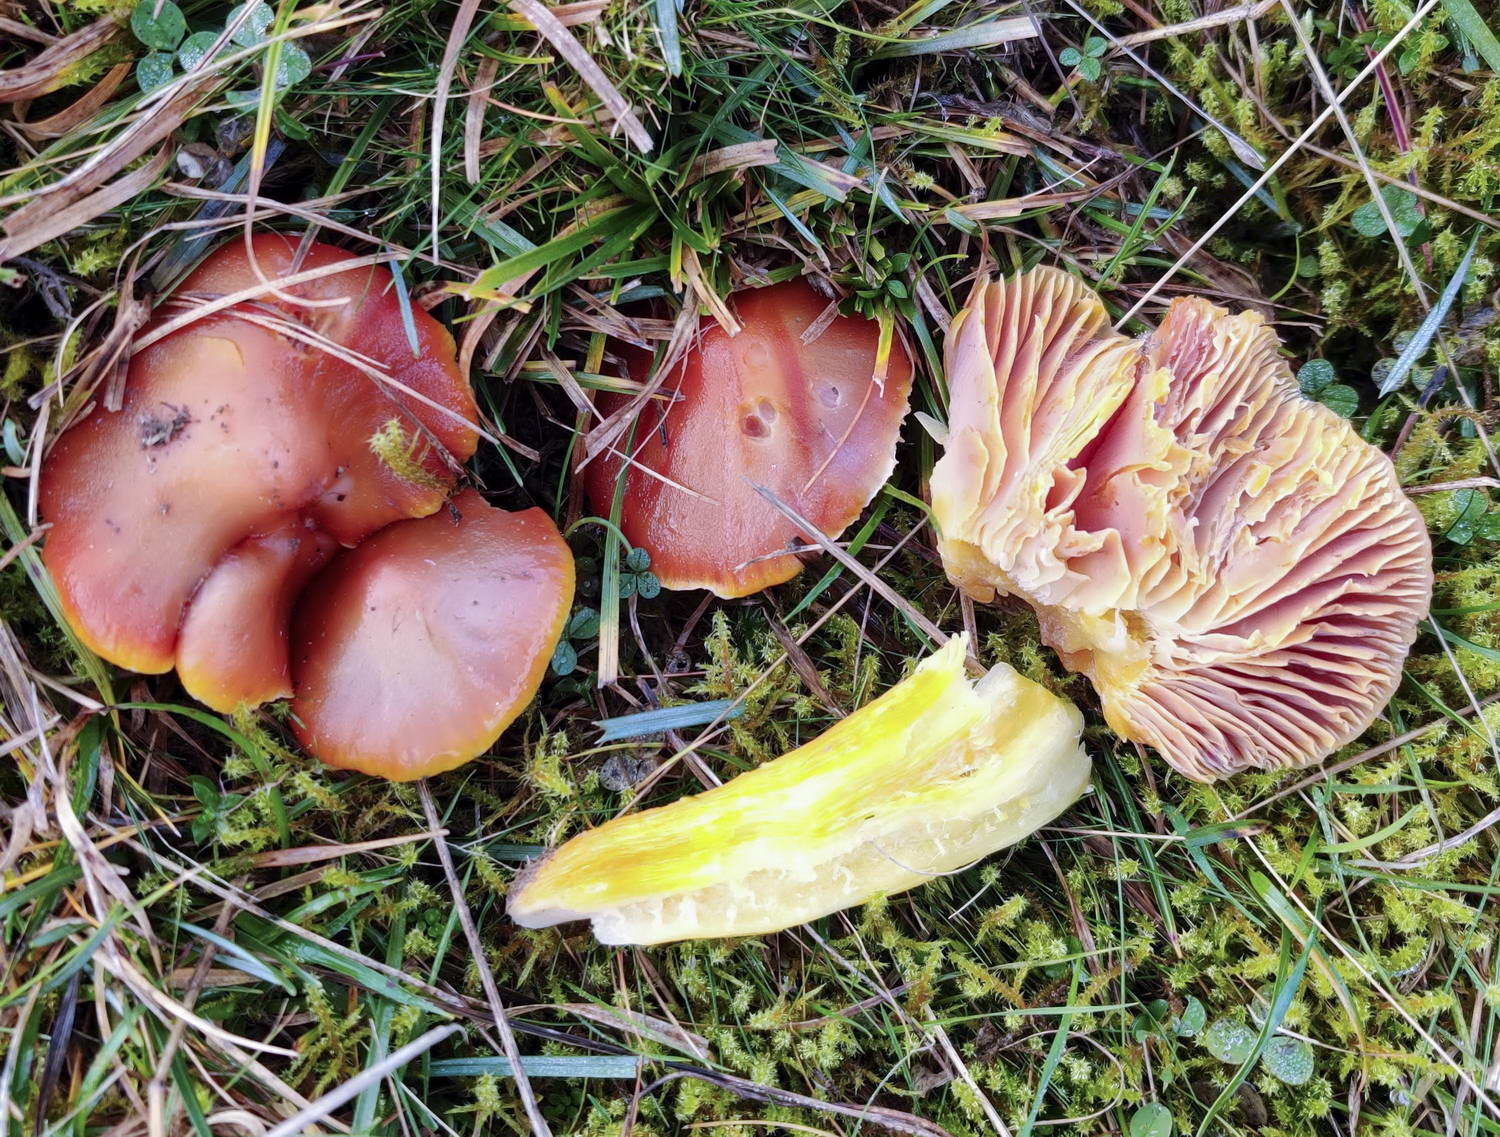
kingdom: Fungi
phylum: Basidiomycota
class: Agaricomycetes
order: Agaricales
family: Hygrophoraceae
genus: Hygrocybe
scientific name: Hygrocybe punicea
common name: skarlagen-vokshat
